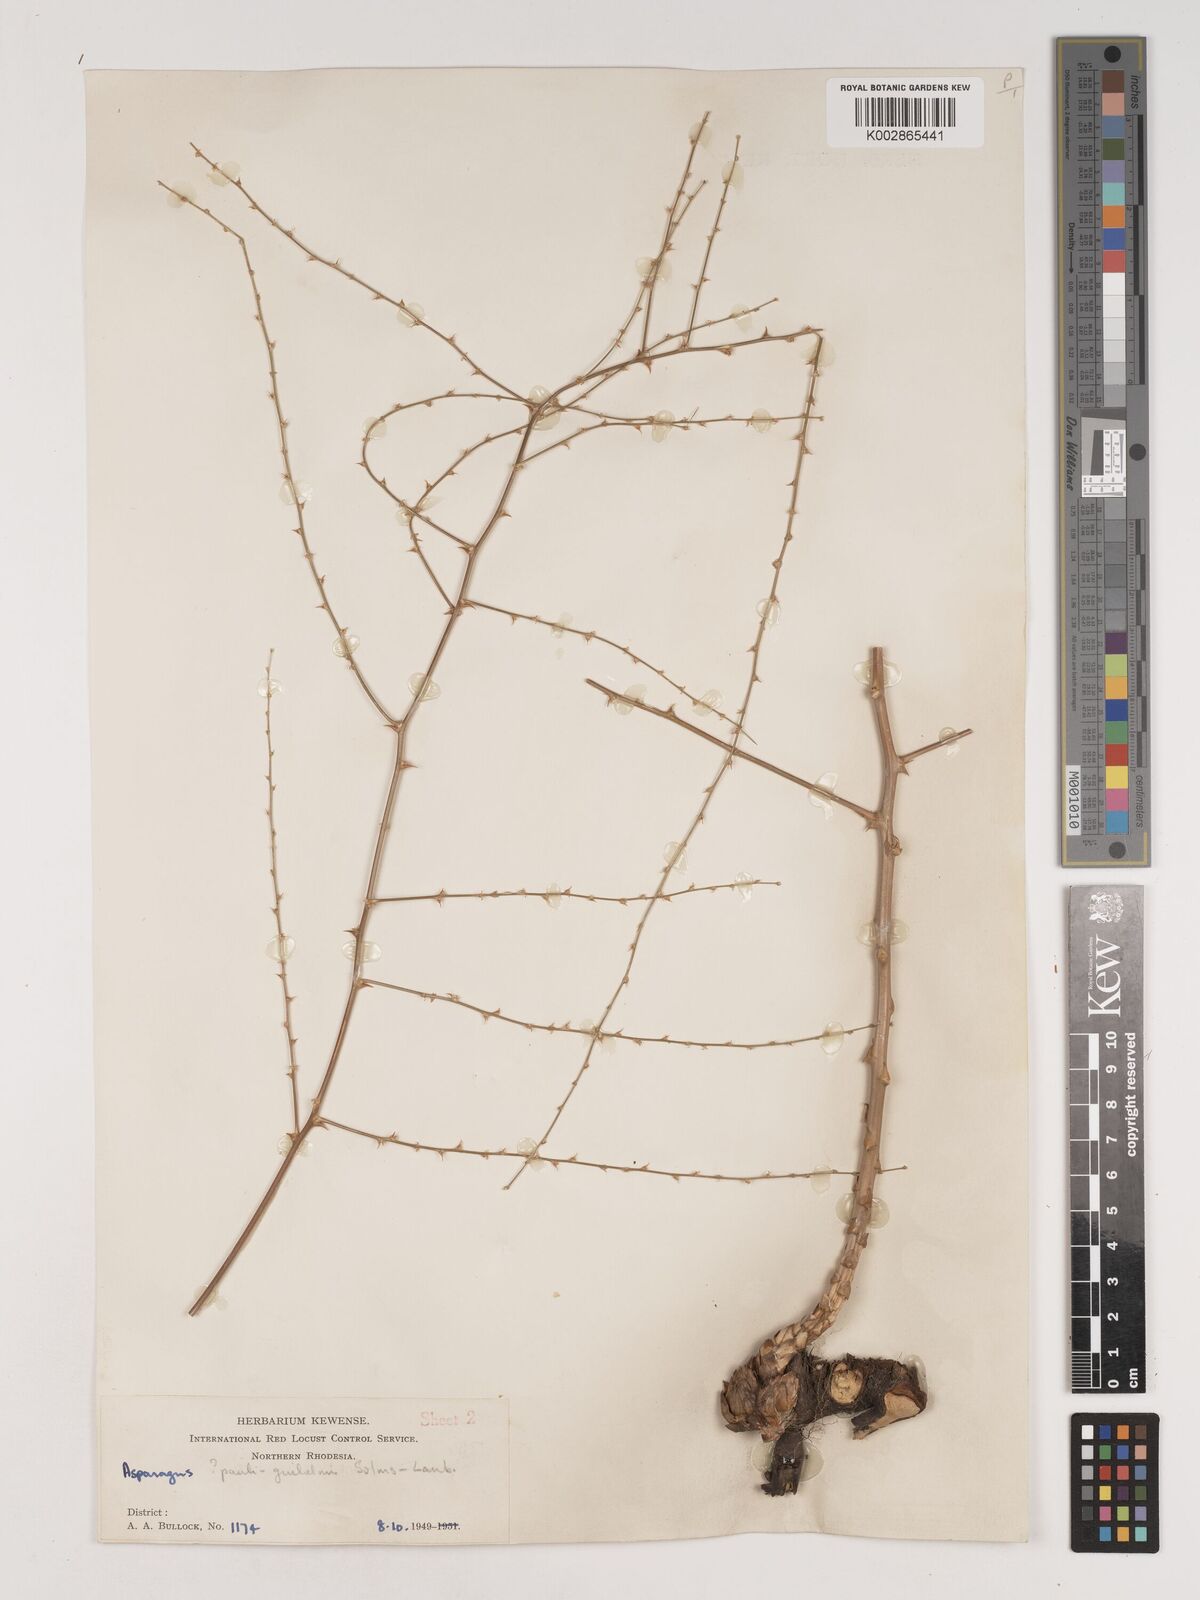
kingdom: Plantae
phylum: Tracheophyta
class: Liliopsida
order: Asparagales
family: Asparagaceae
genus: Asparagus
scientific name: Asparagus flagellaris
